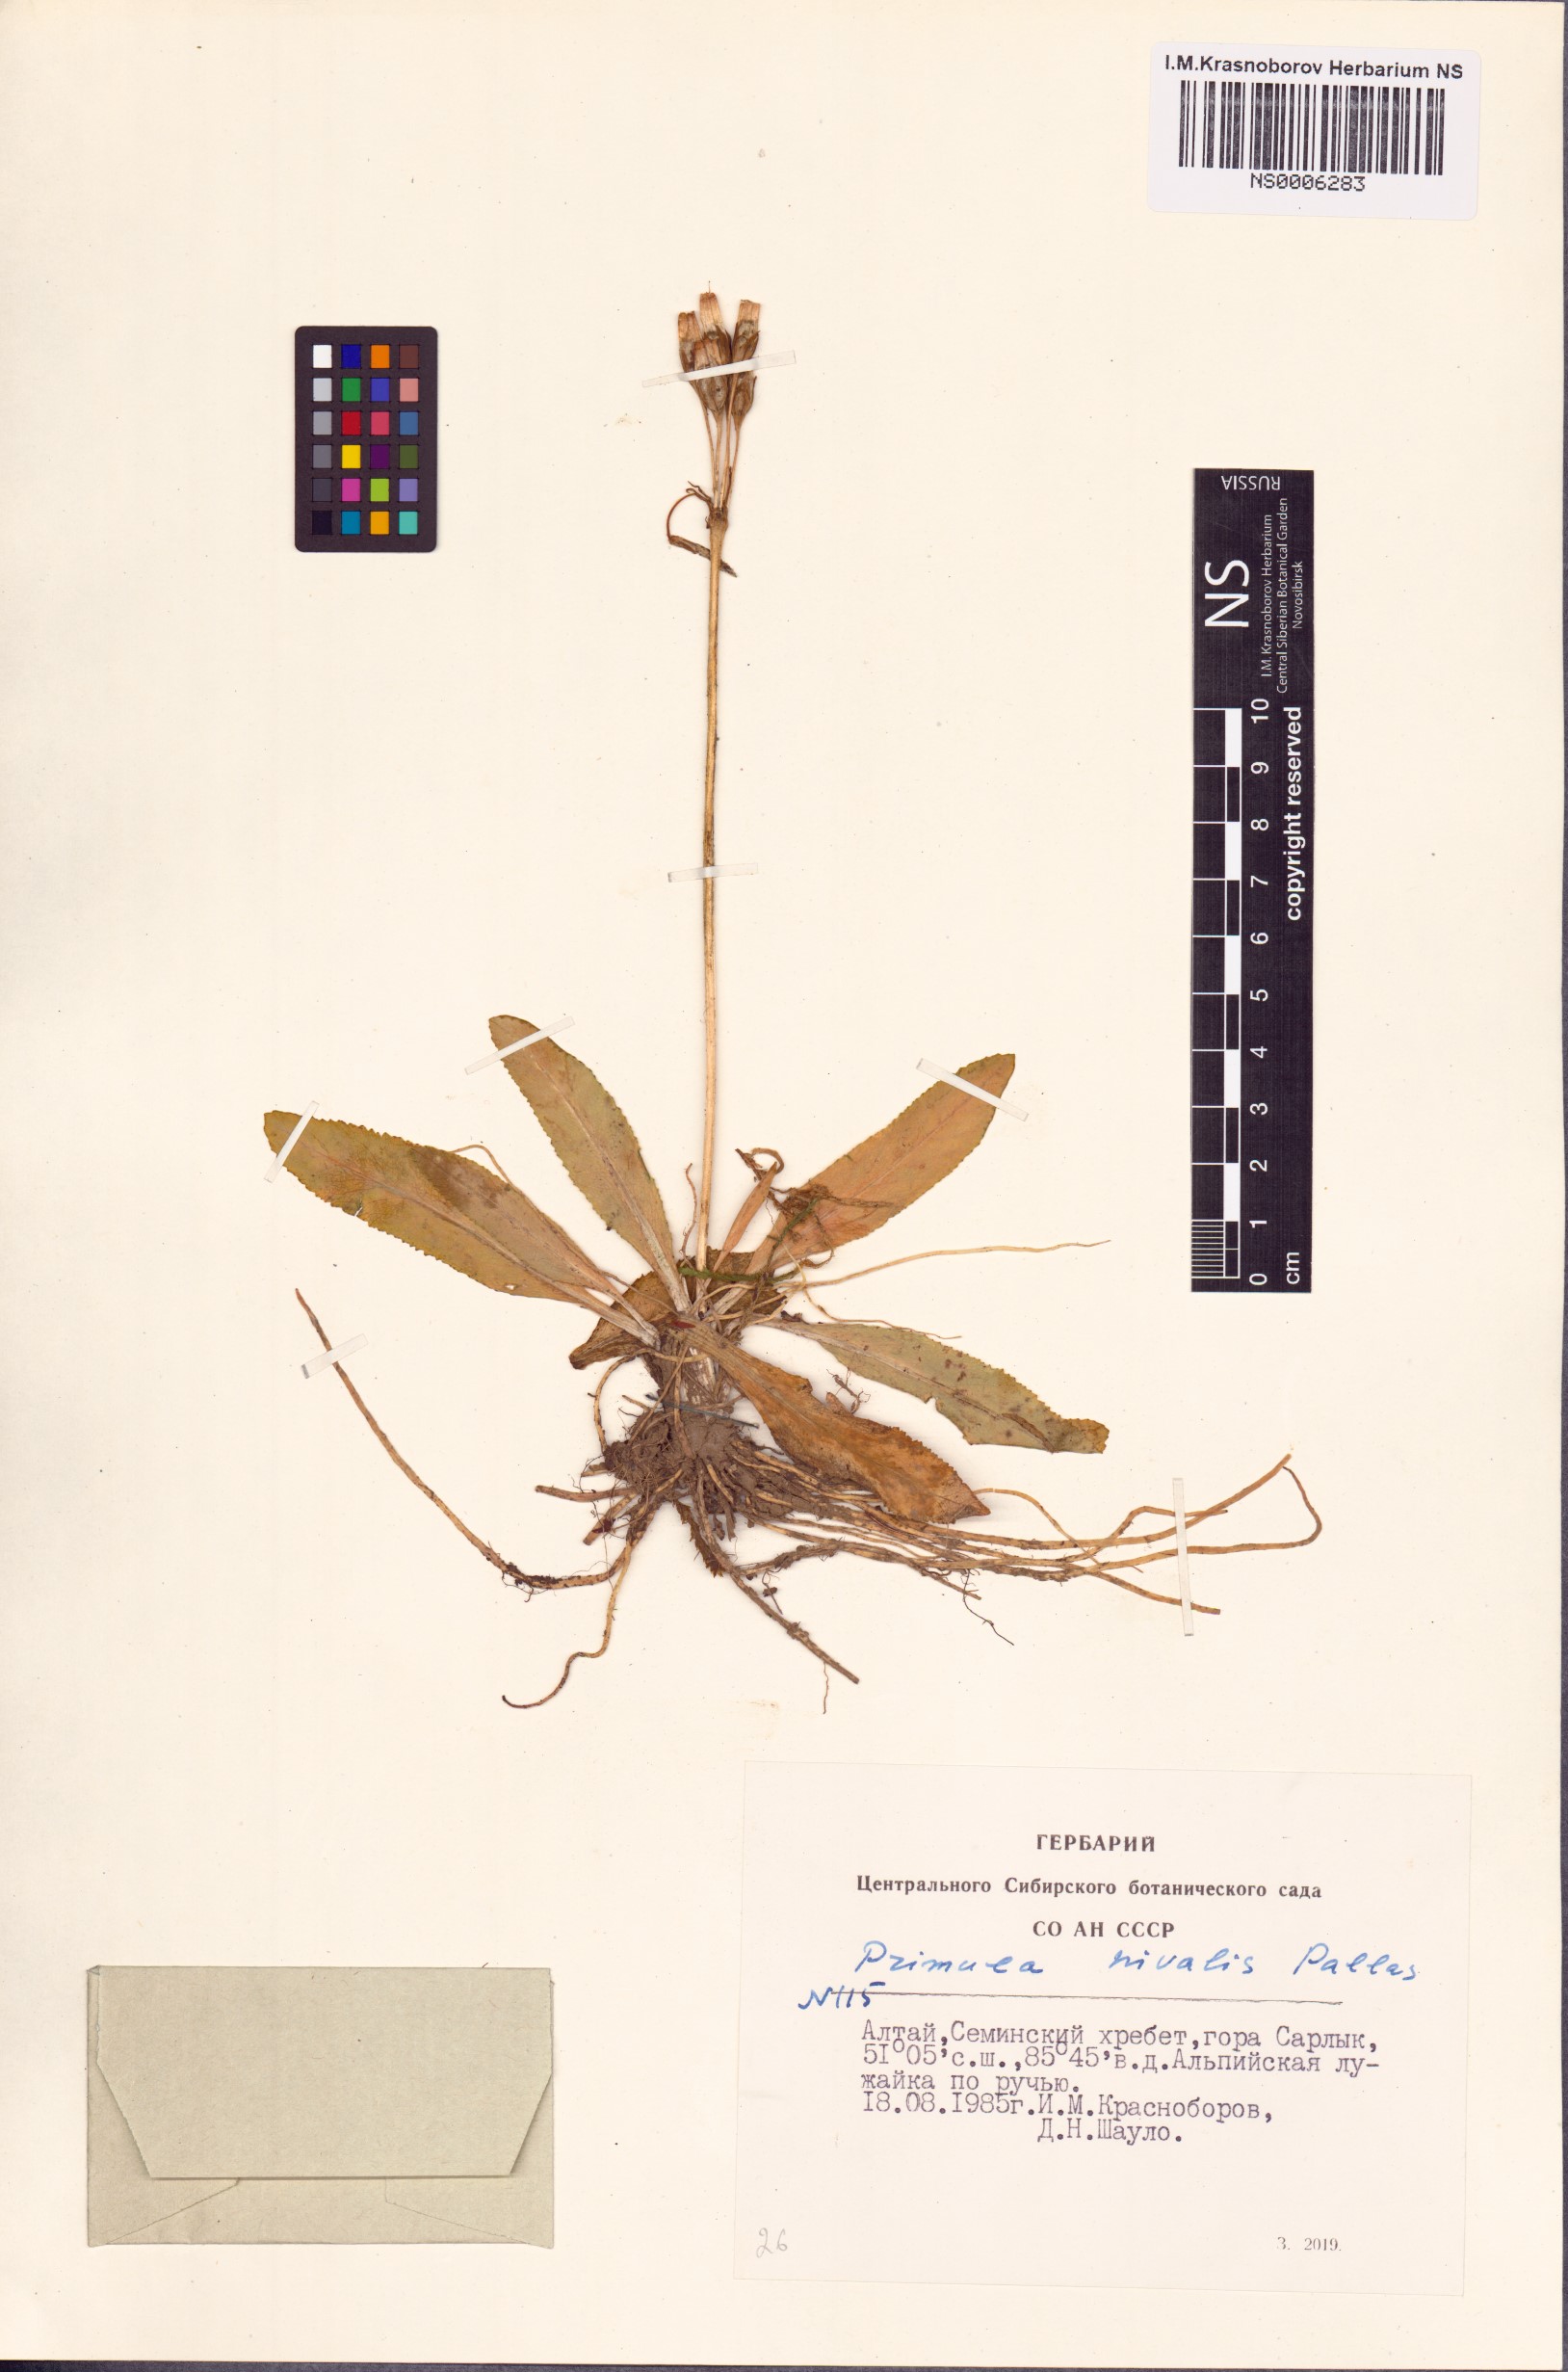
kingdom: Plantae
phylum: Tracheophyta
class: Magnoliopsida
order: Ericales
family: Primulaceae
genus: Primula
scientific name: Primula nivalis
